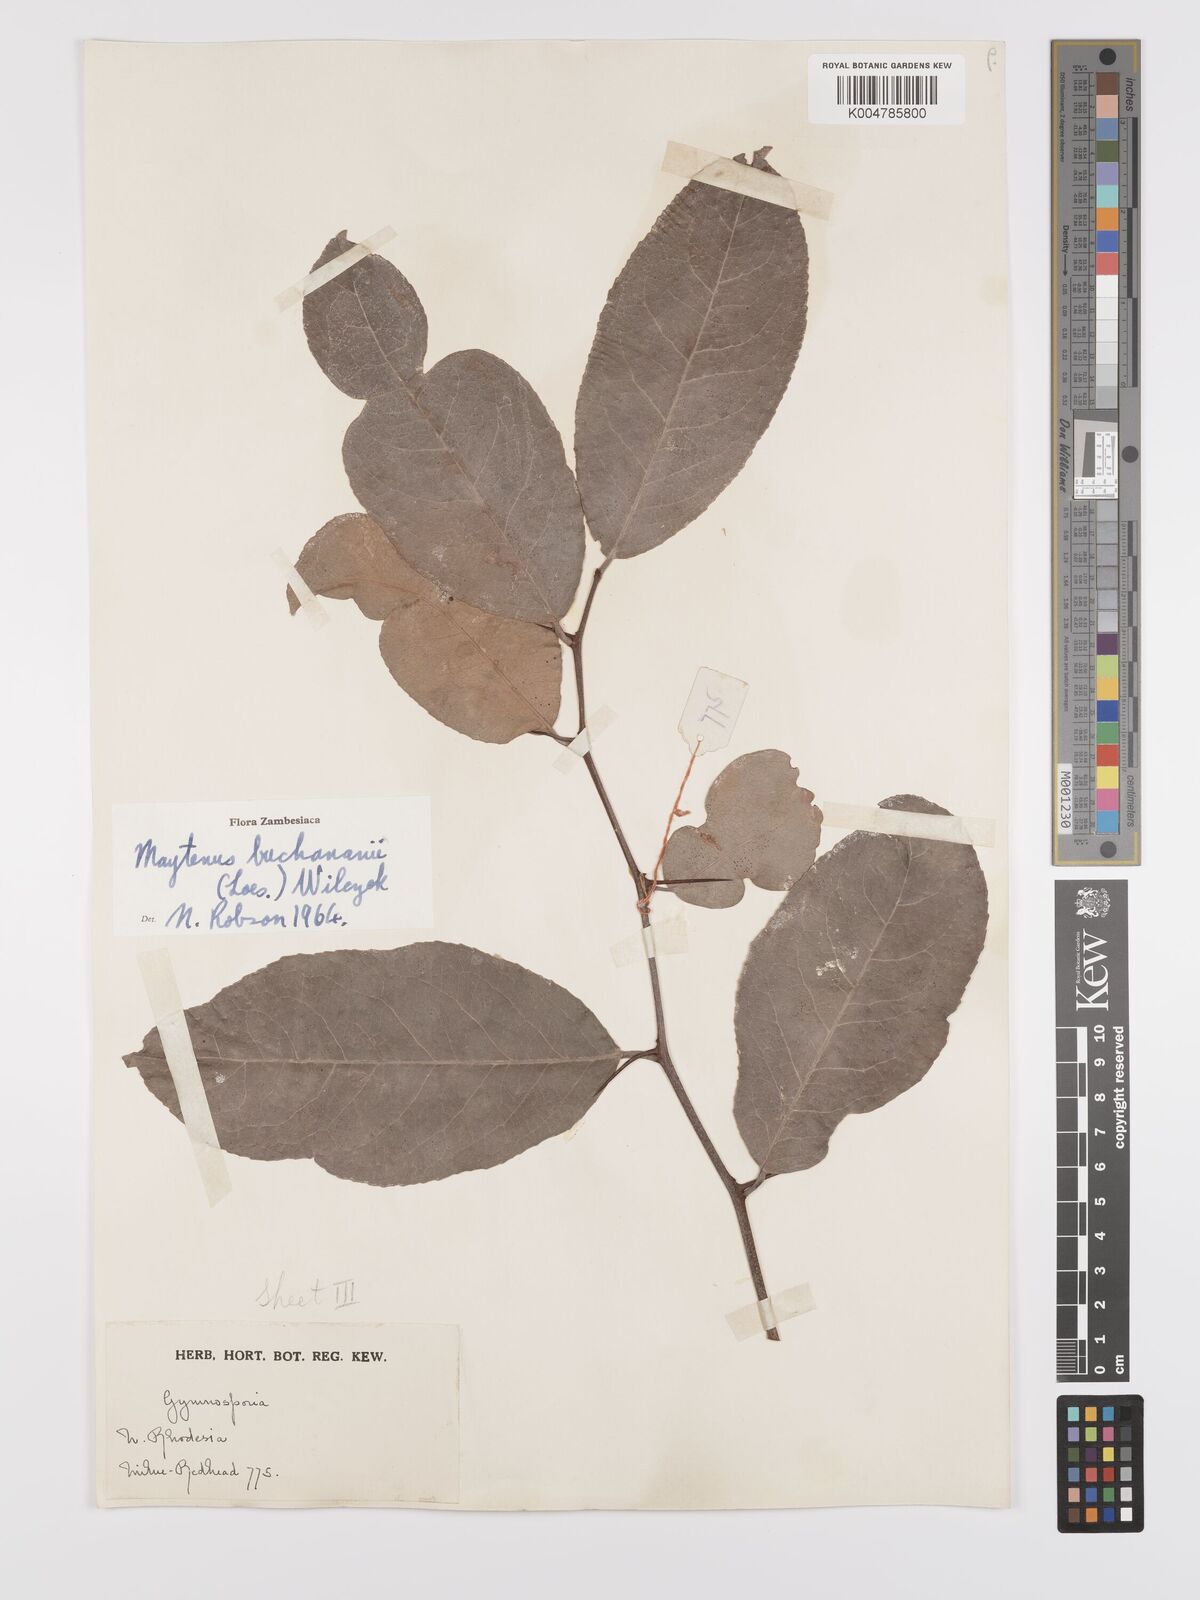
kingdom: Plantae
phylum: Tracheophyta
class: Magnoliopsida
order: Celastrales
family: Celastraceae
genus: Gymnosporia
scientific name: Gymnosporia buchananii
